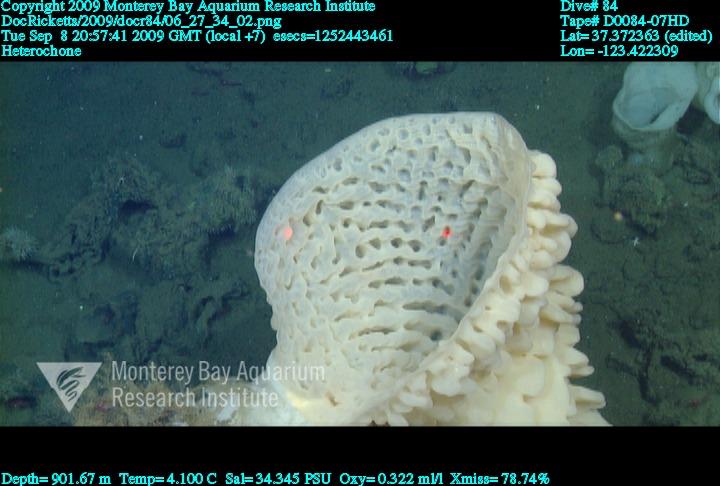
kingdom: Animalia
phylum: Porifera
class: Hexactinellida
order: Sceptrulophora
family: Aphrocallistidae
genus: Heterochone
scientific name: Heterochone
